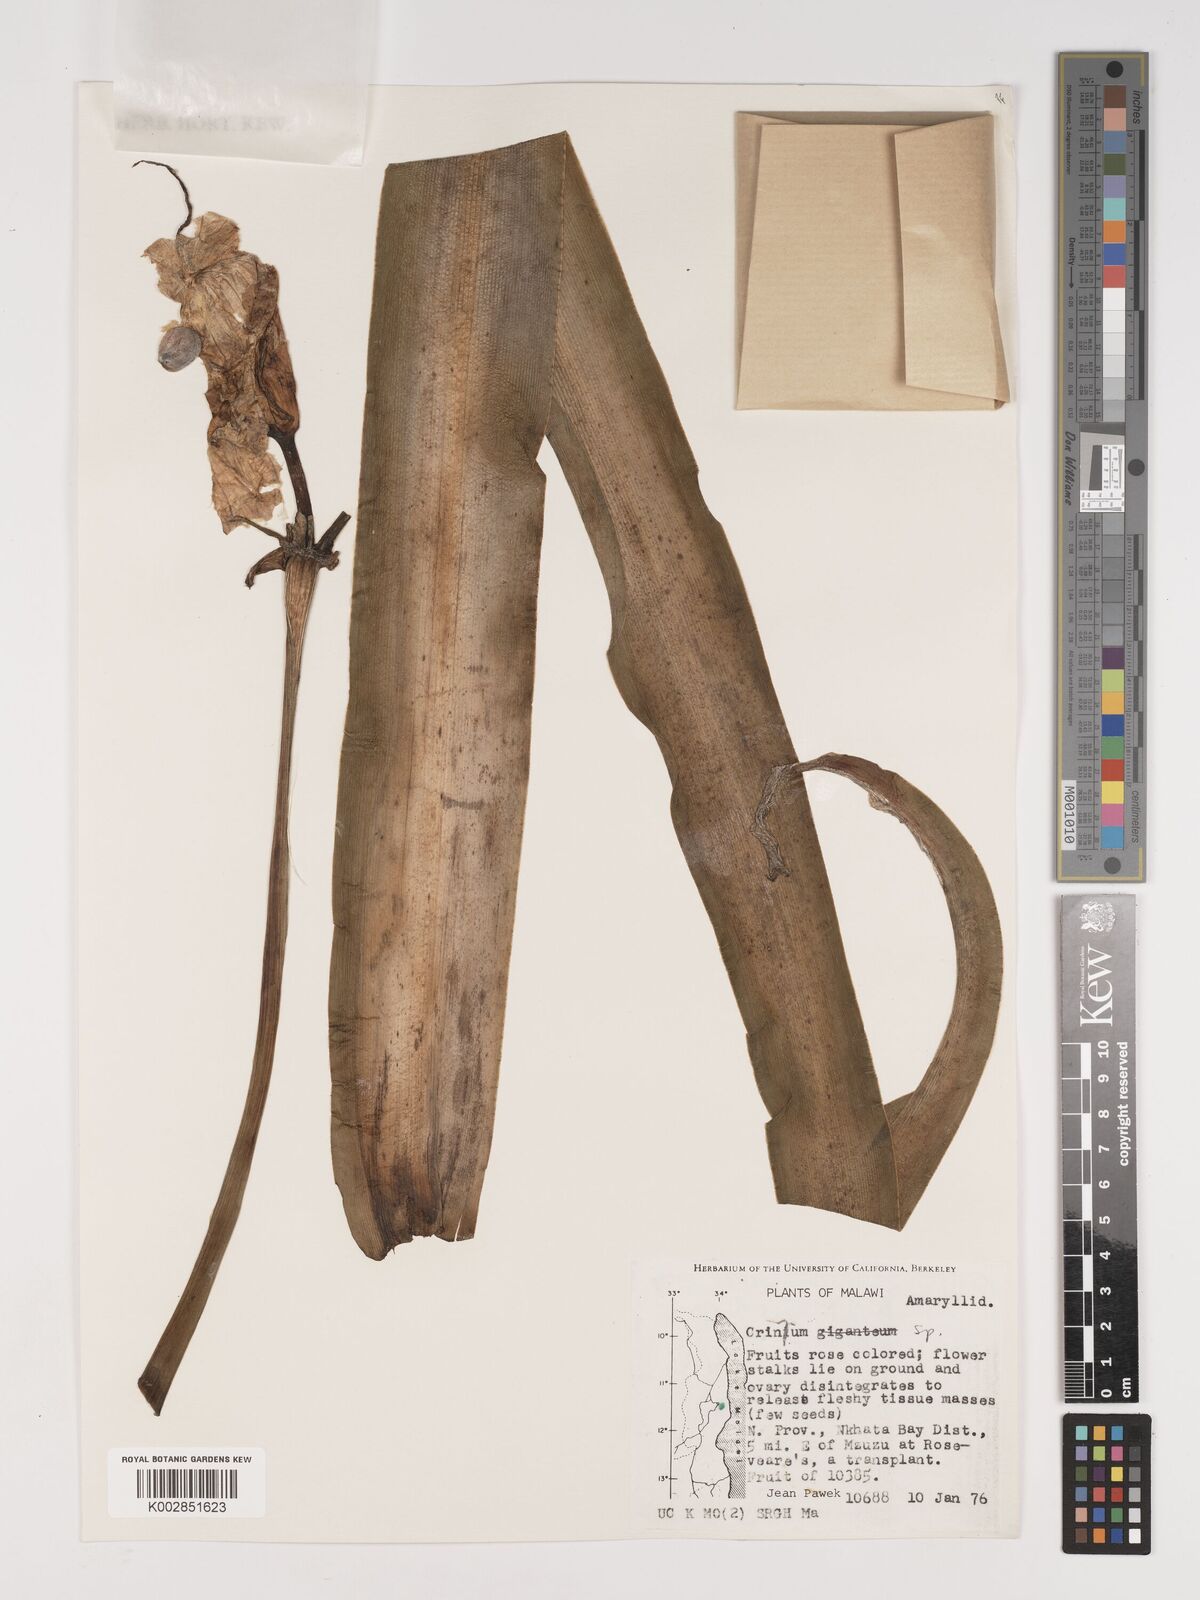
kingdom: Plantae
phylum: Tracheophyta
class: Liliopsida
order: Asparagales
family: Amaryllidaceae
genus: Crinum
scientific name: Crinum
